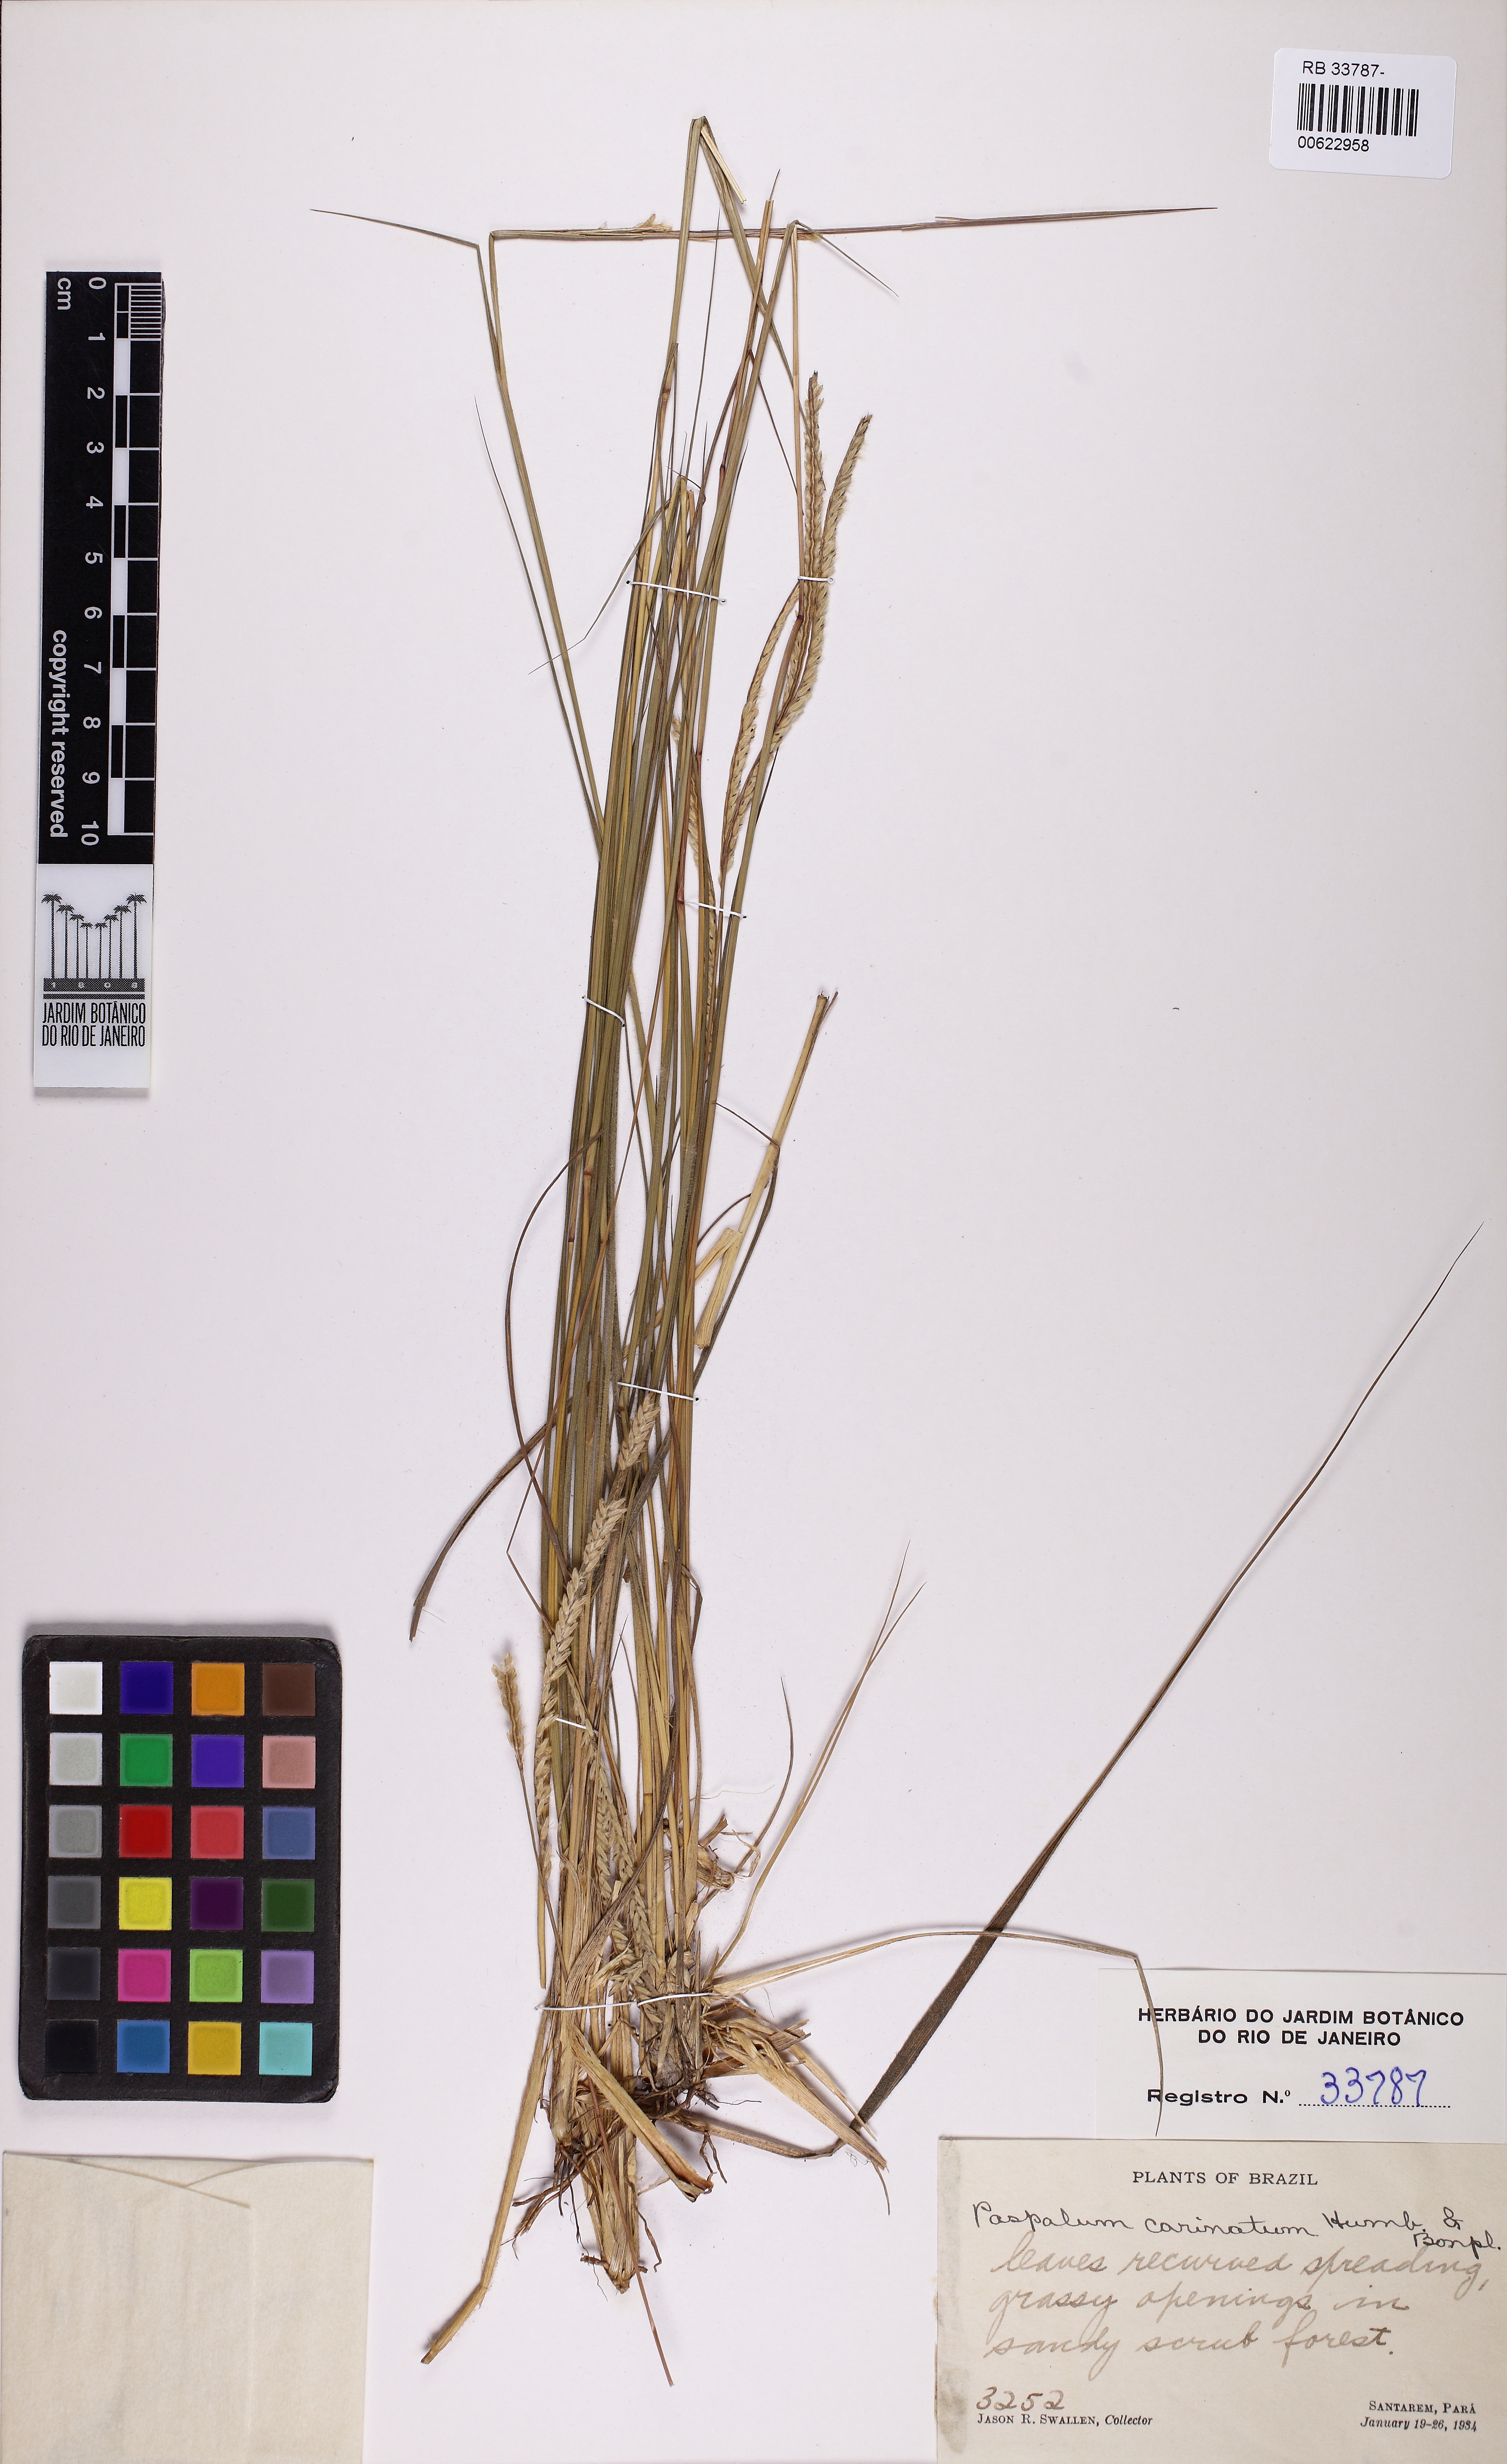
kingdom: Plantae
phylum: Tracheophyta
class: Liliopsida
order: Poales
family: Poaceae
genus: Paspalum
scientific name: Paspalum carinatum
